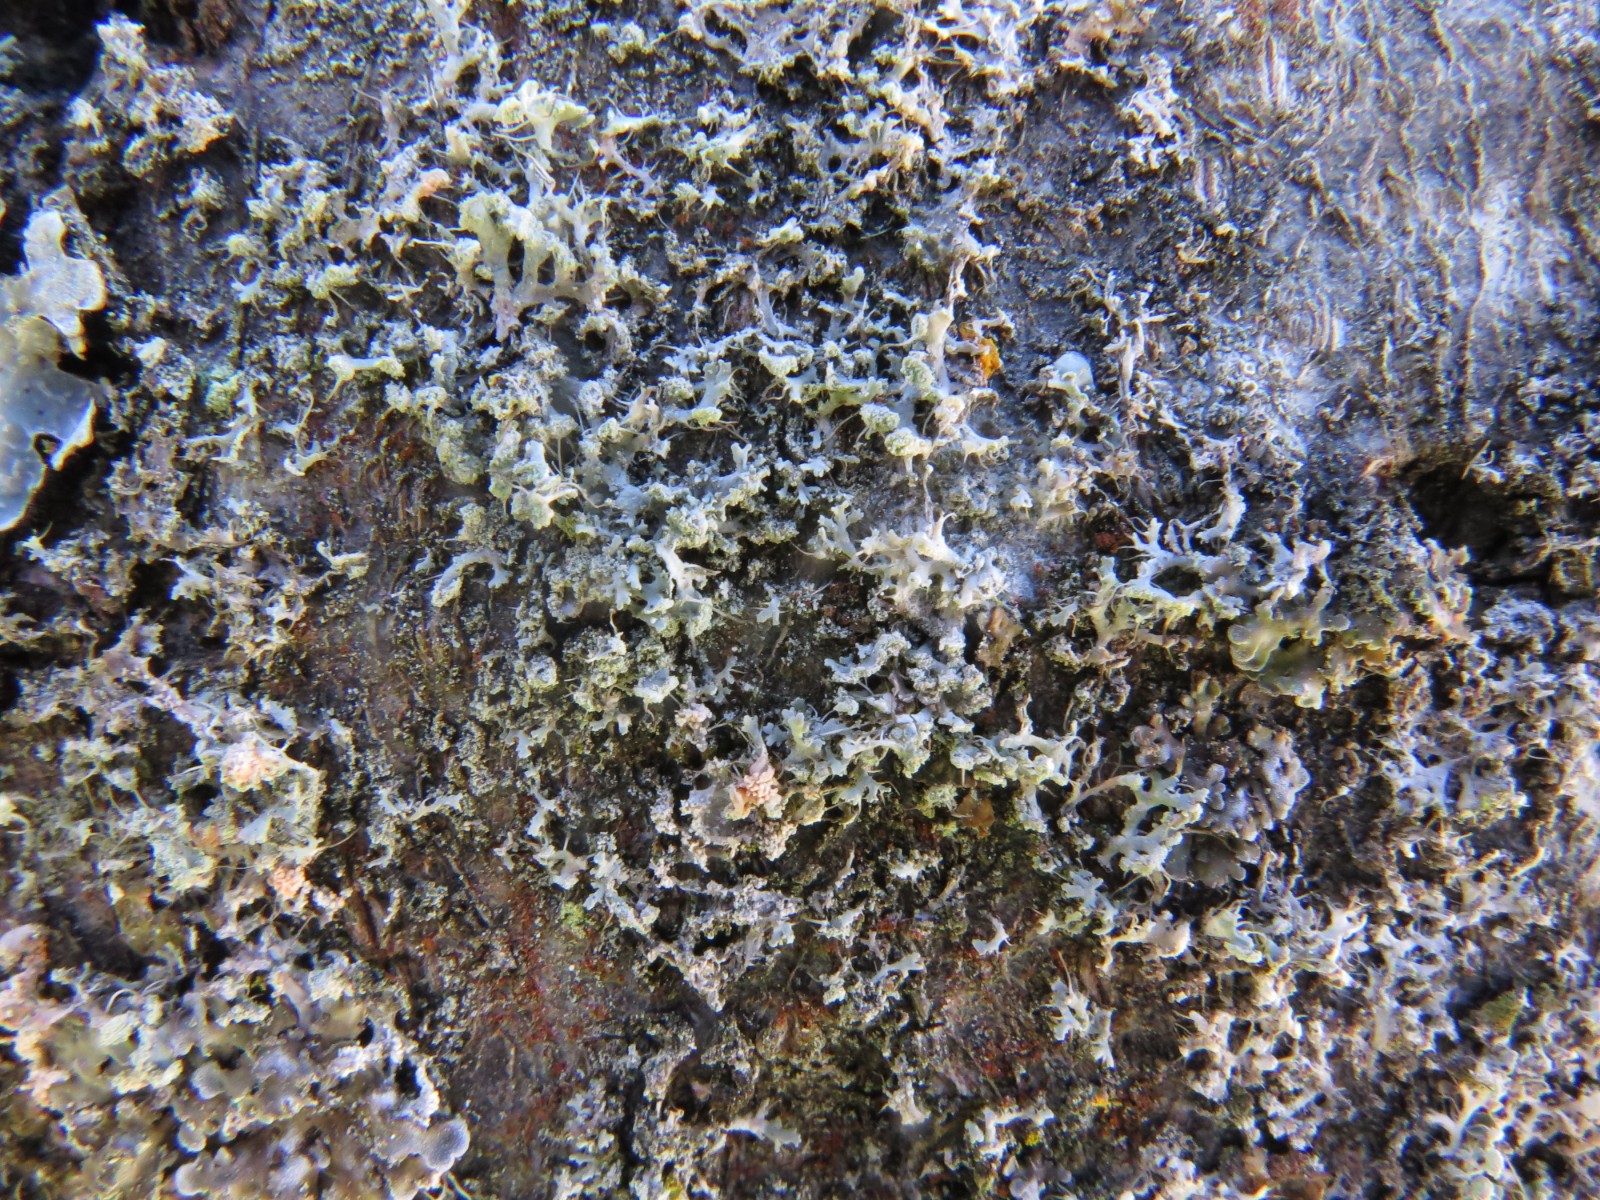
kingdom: Fungi
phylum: Ascomycota
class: Lecanoromycetes
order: Caliciales
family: Physciaceae
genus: Physcia
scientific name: Physcia tenella
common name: spæd rosetlav
